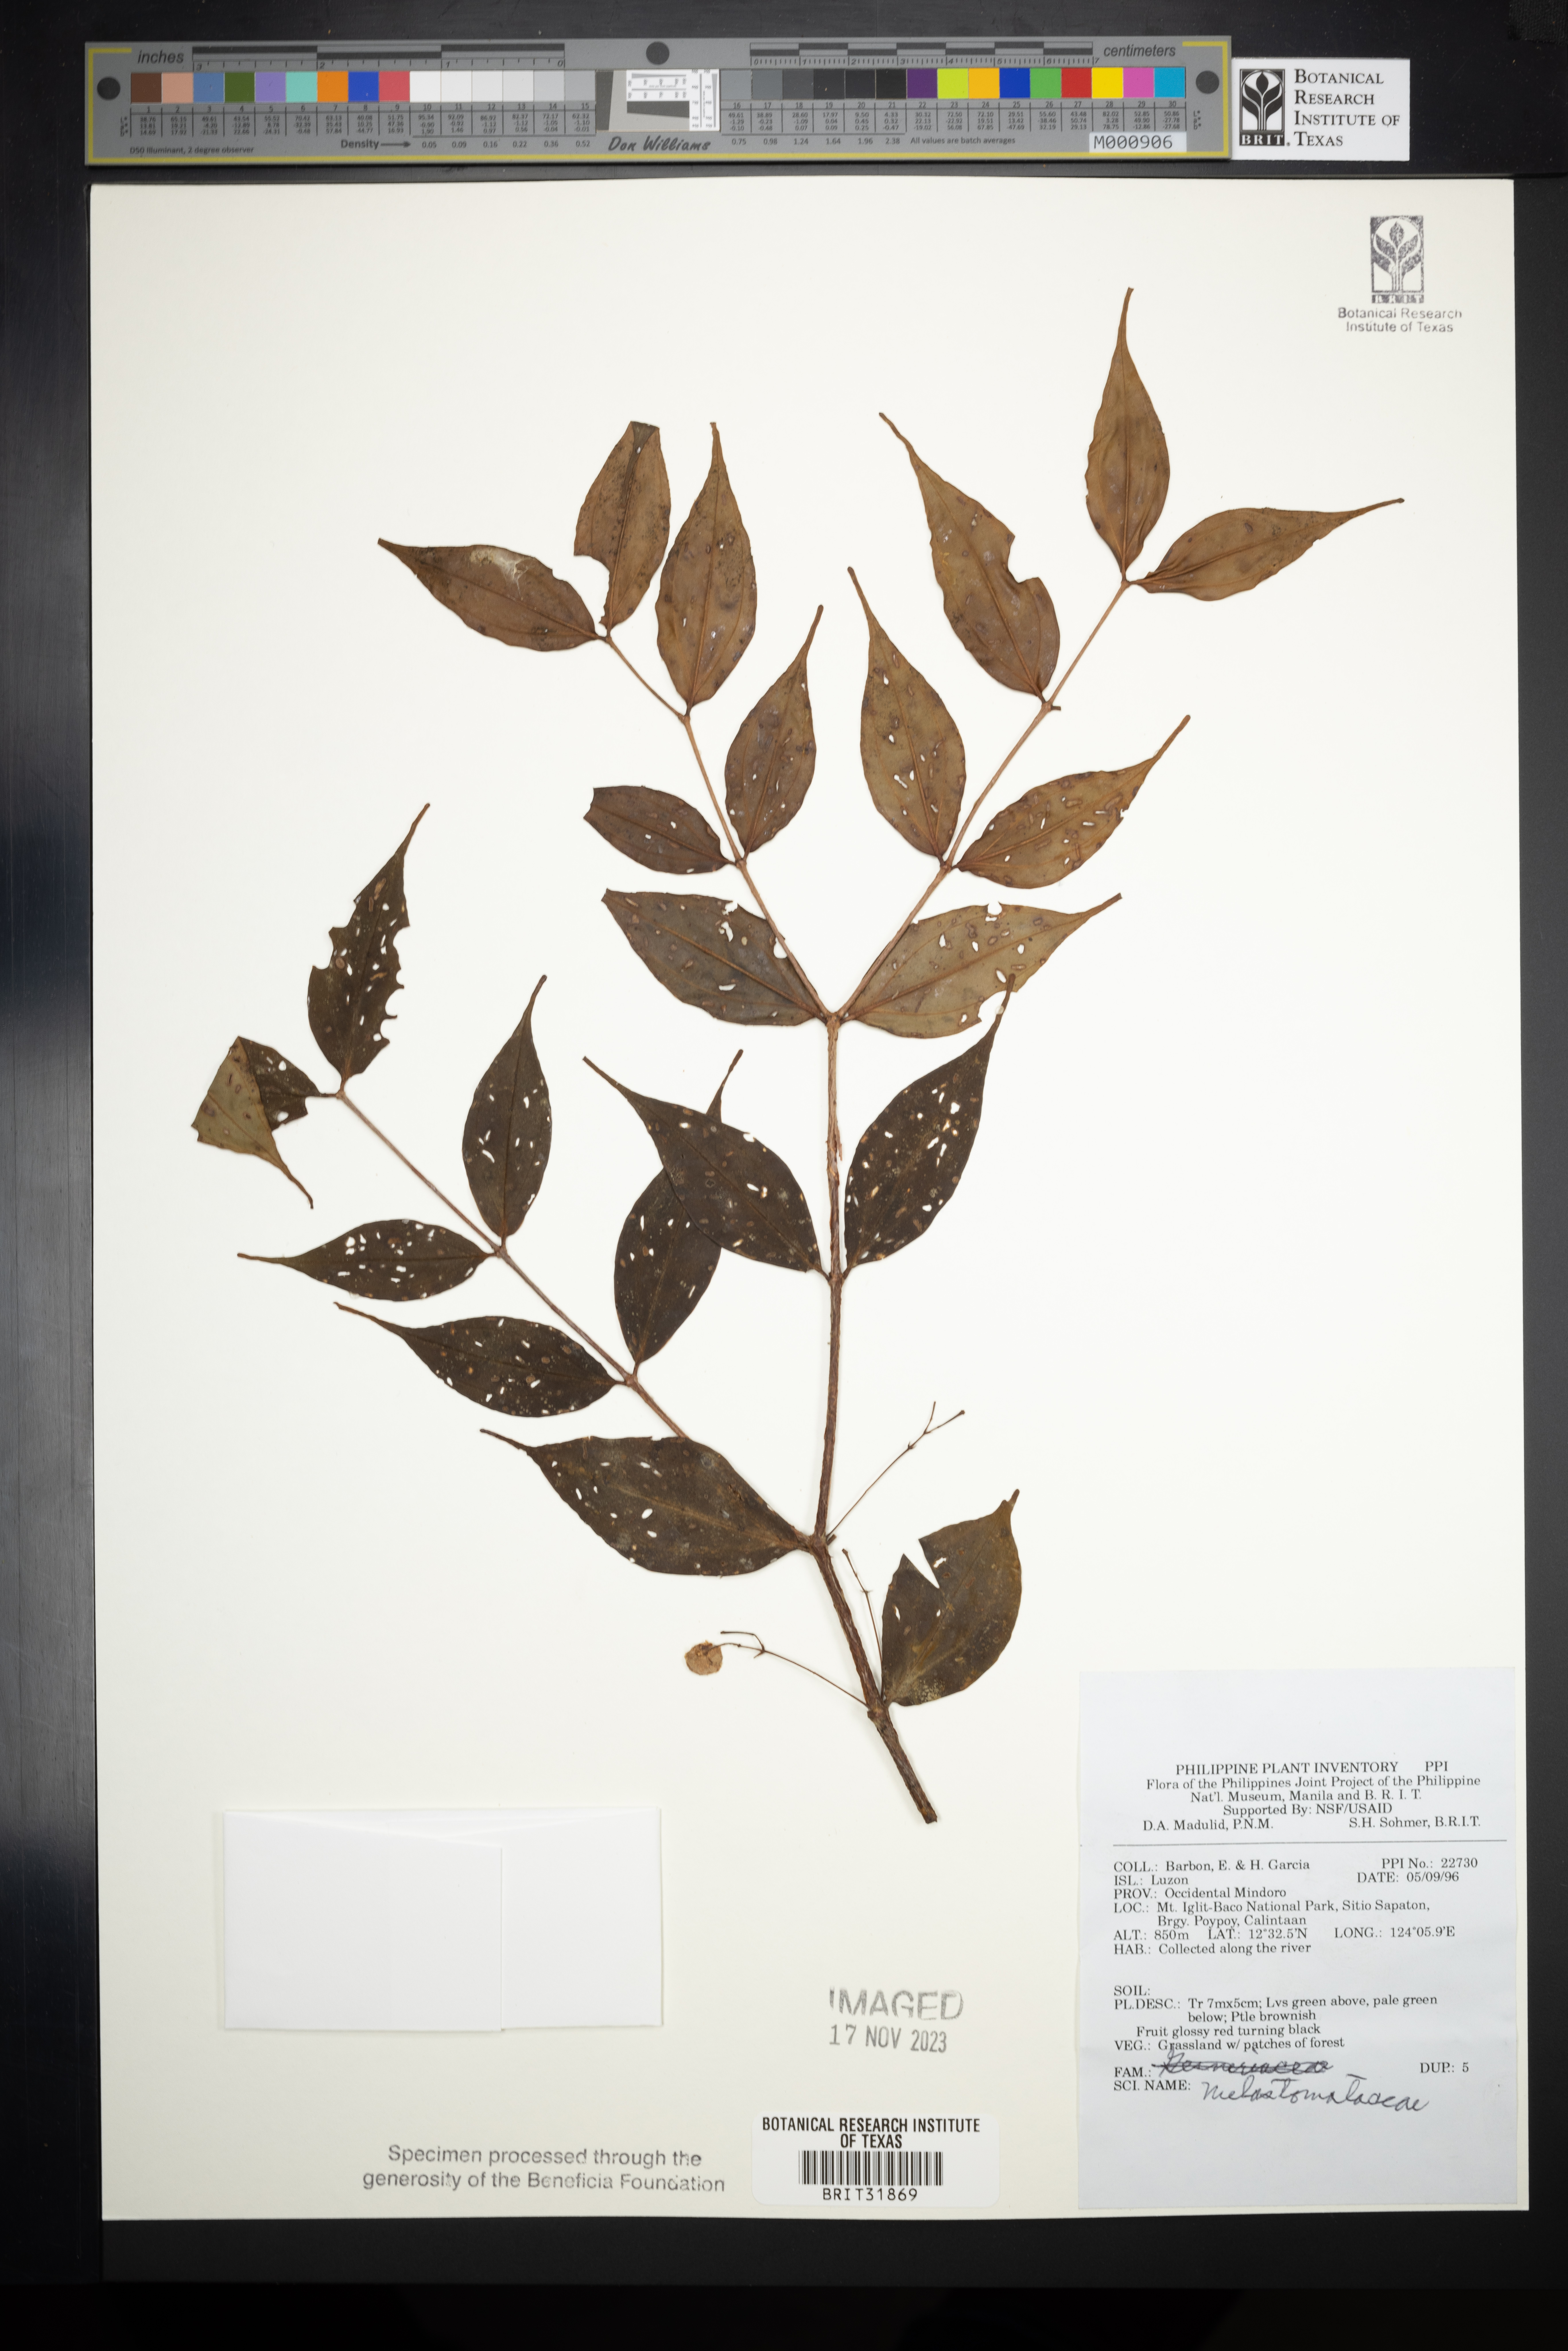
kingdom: Plantae
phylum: Tracheophyta
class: Magnoliopsida
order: Myrtales
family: Melastomataceae
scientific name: Melastomataceae
